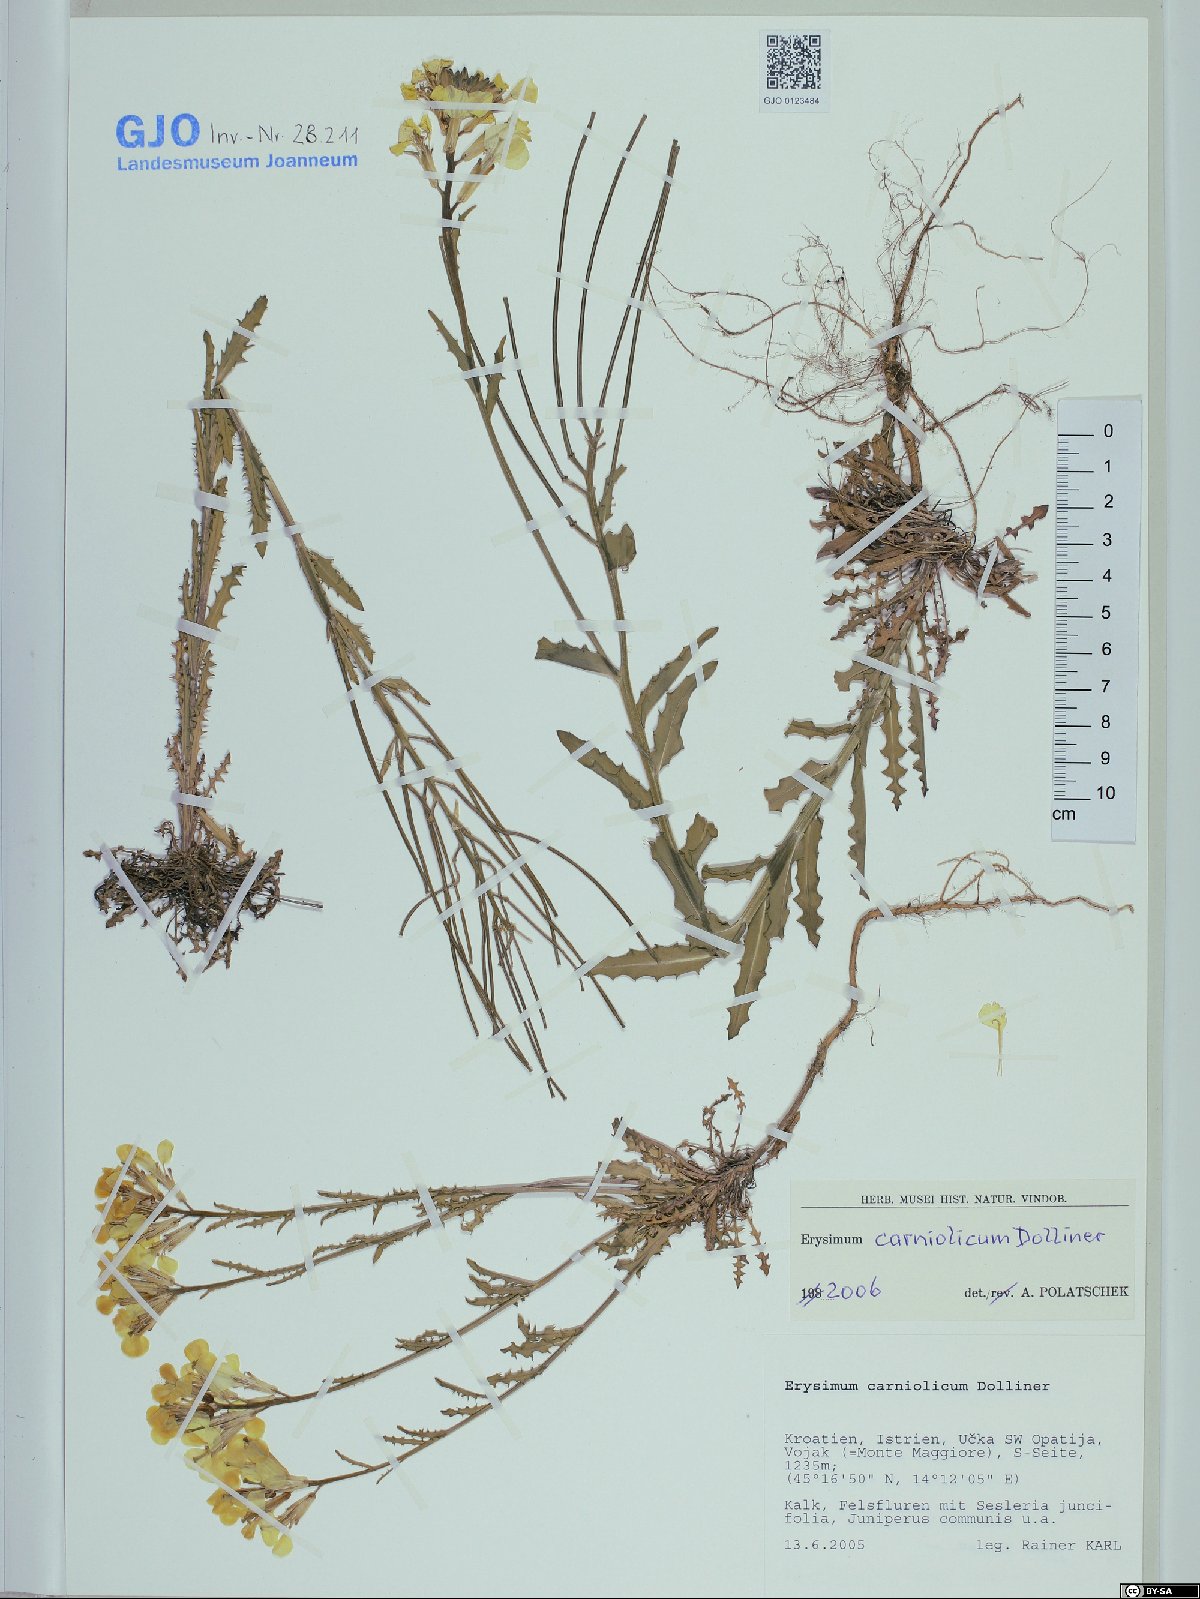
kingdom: Plantae
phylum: Tracheophyta
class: Magnoliopsida
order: Brassicales
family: Brassicaceae
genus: Erysimum
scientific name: Erysimum carniolicum
